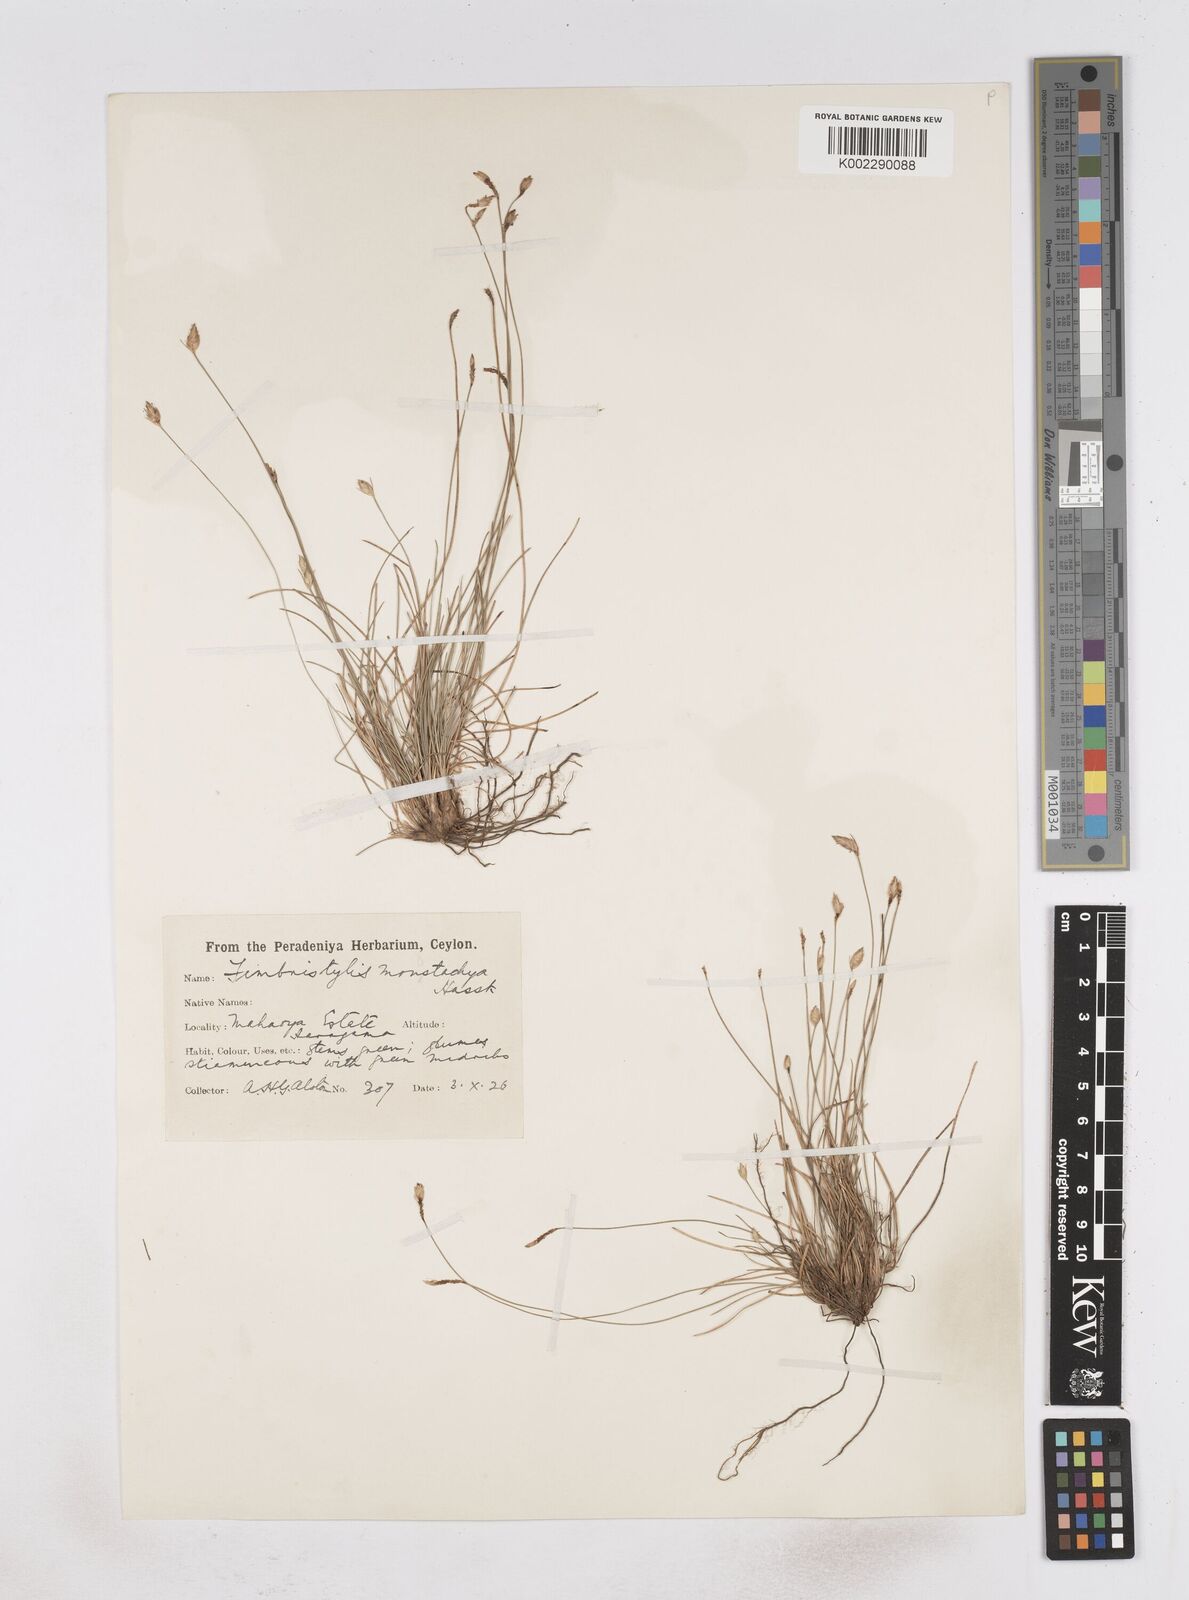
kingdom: Plantae
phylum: Tracheophyta
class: Liliopsida
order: Poales
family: Cyperaceae
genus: Abildgaardia
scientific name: Abildgaardia ovata
